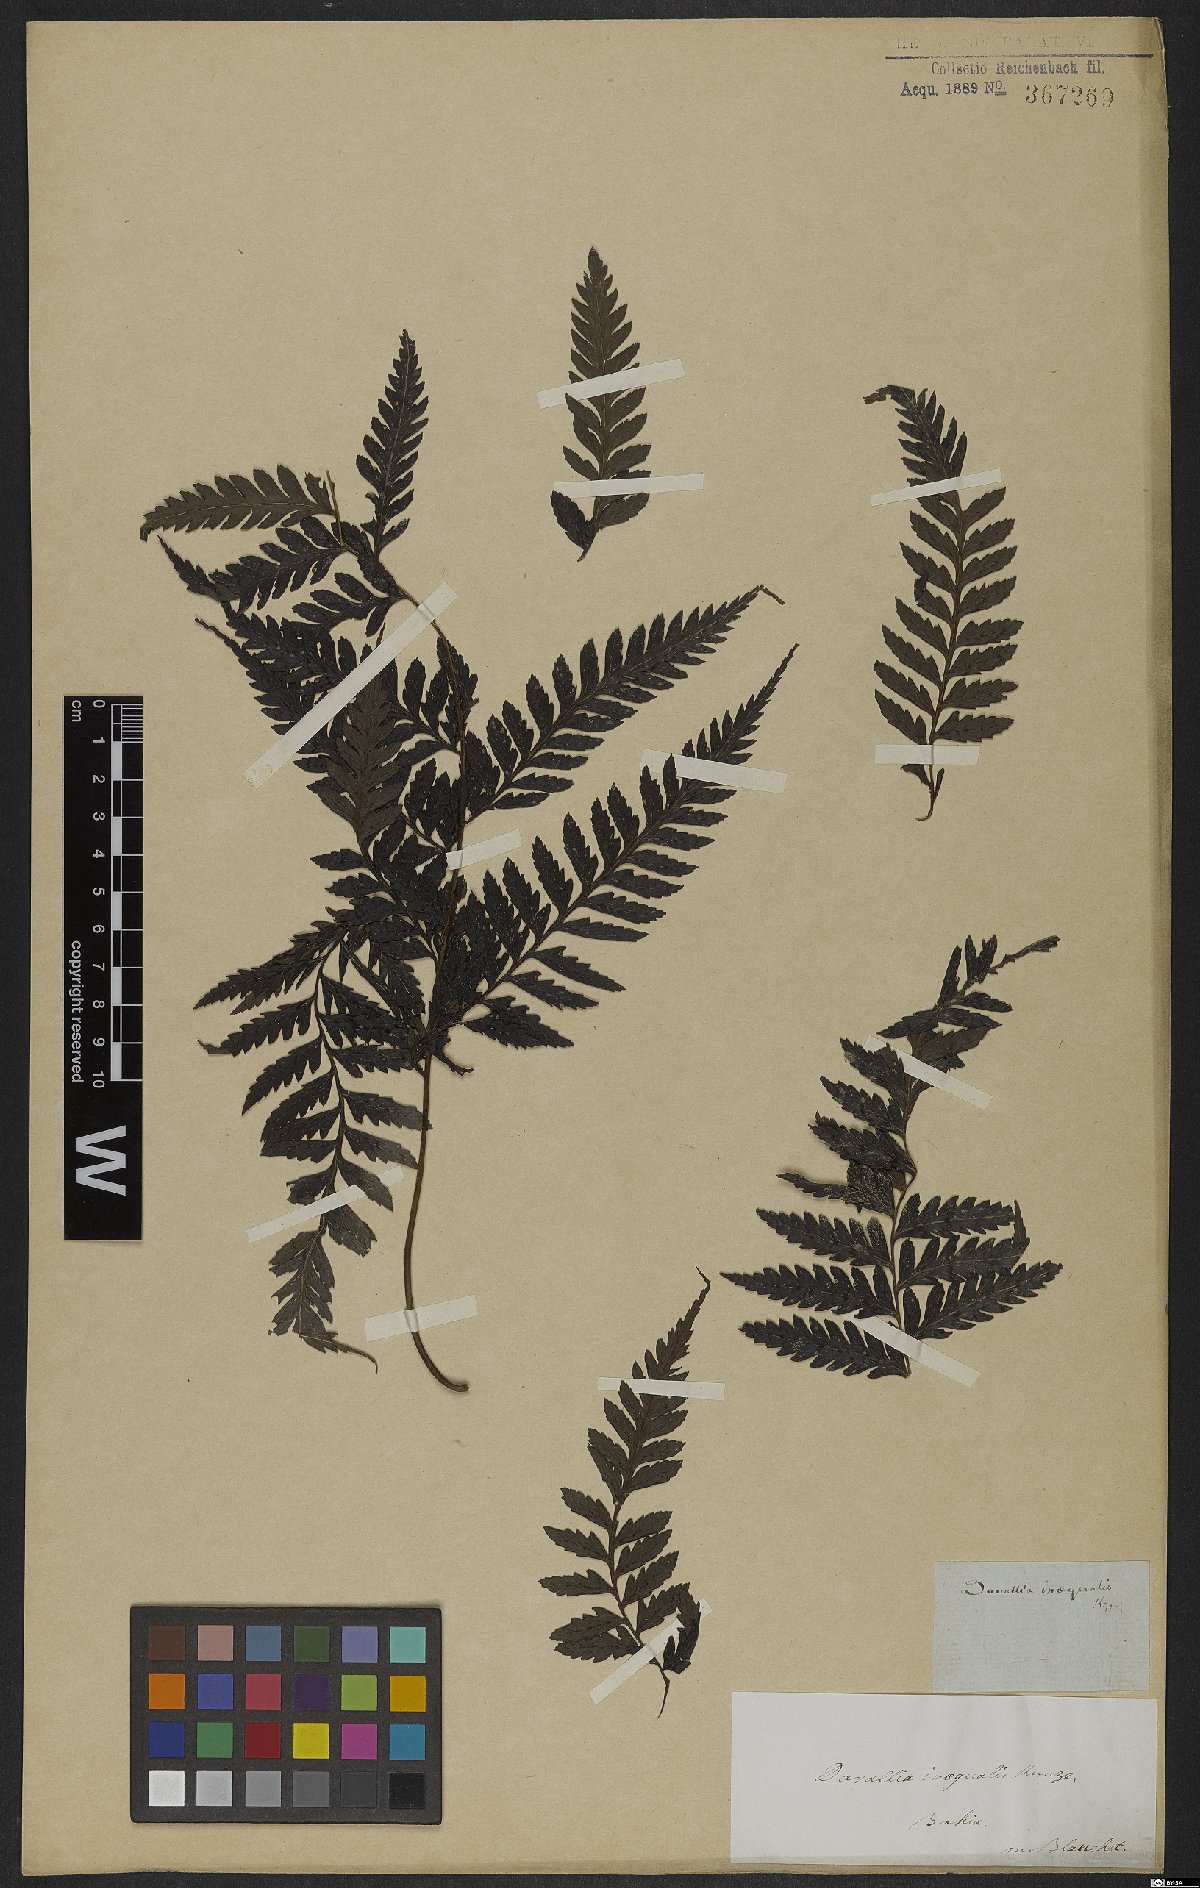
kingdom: Plantae
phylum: Tracheophyta
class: Polypodiopsida
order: Polypodiales
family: Saccolomataceae
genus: Saccoloma
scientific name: Saccoloma inaequale
